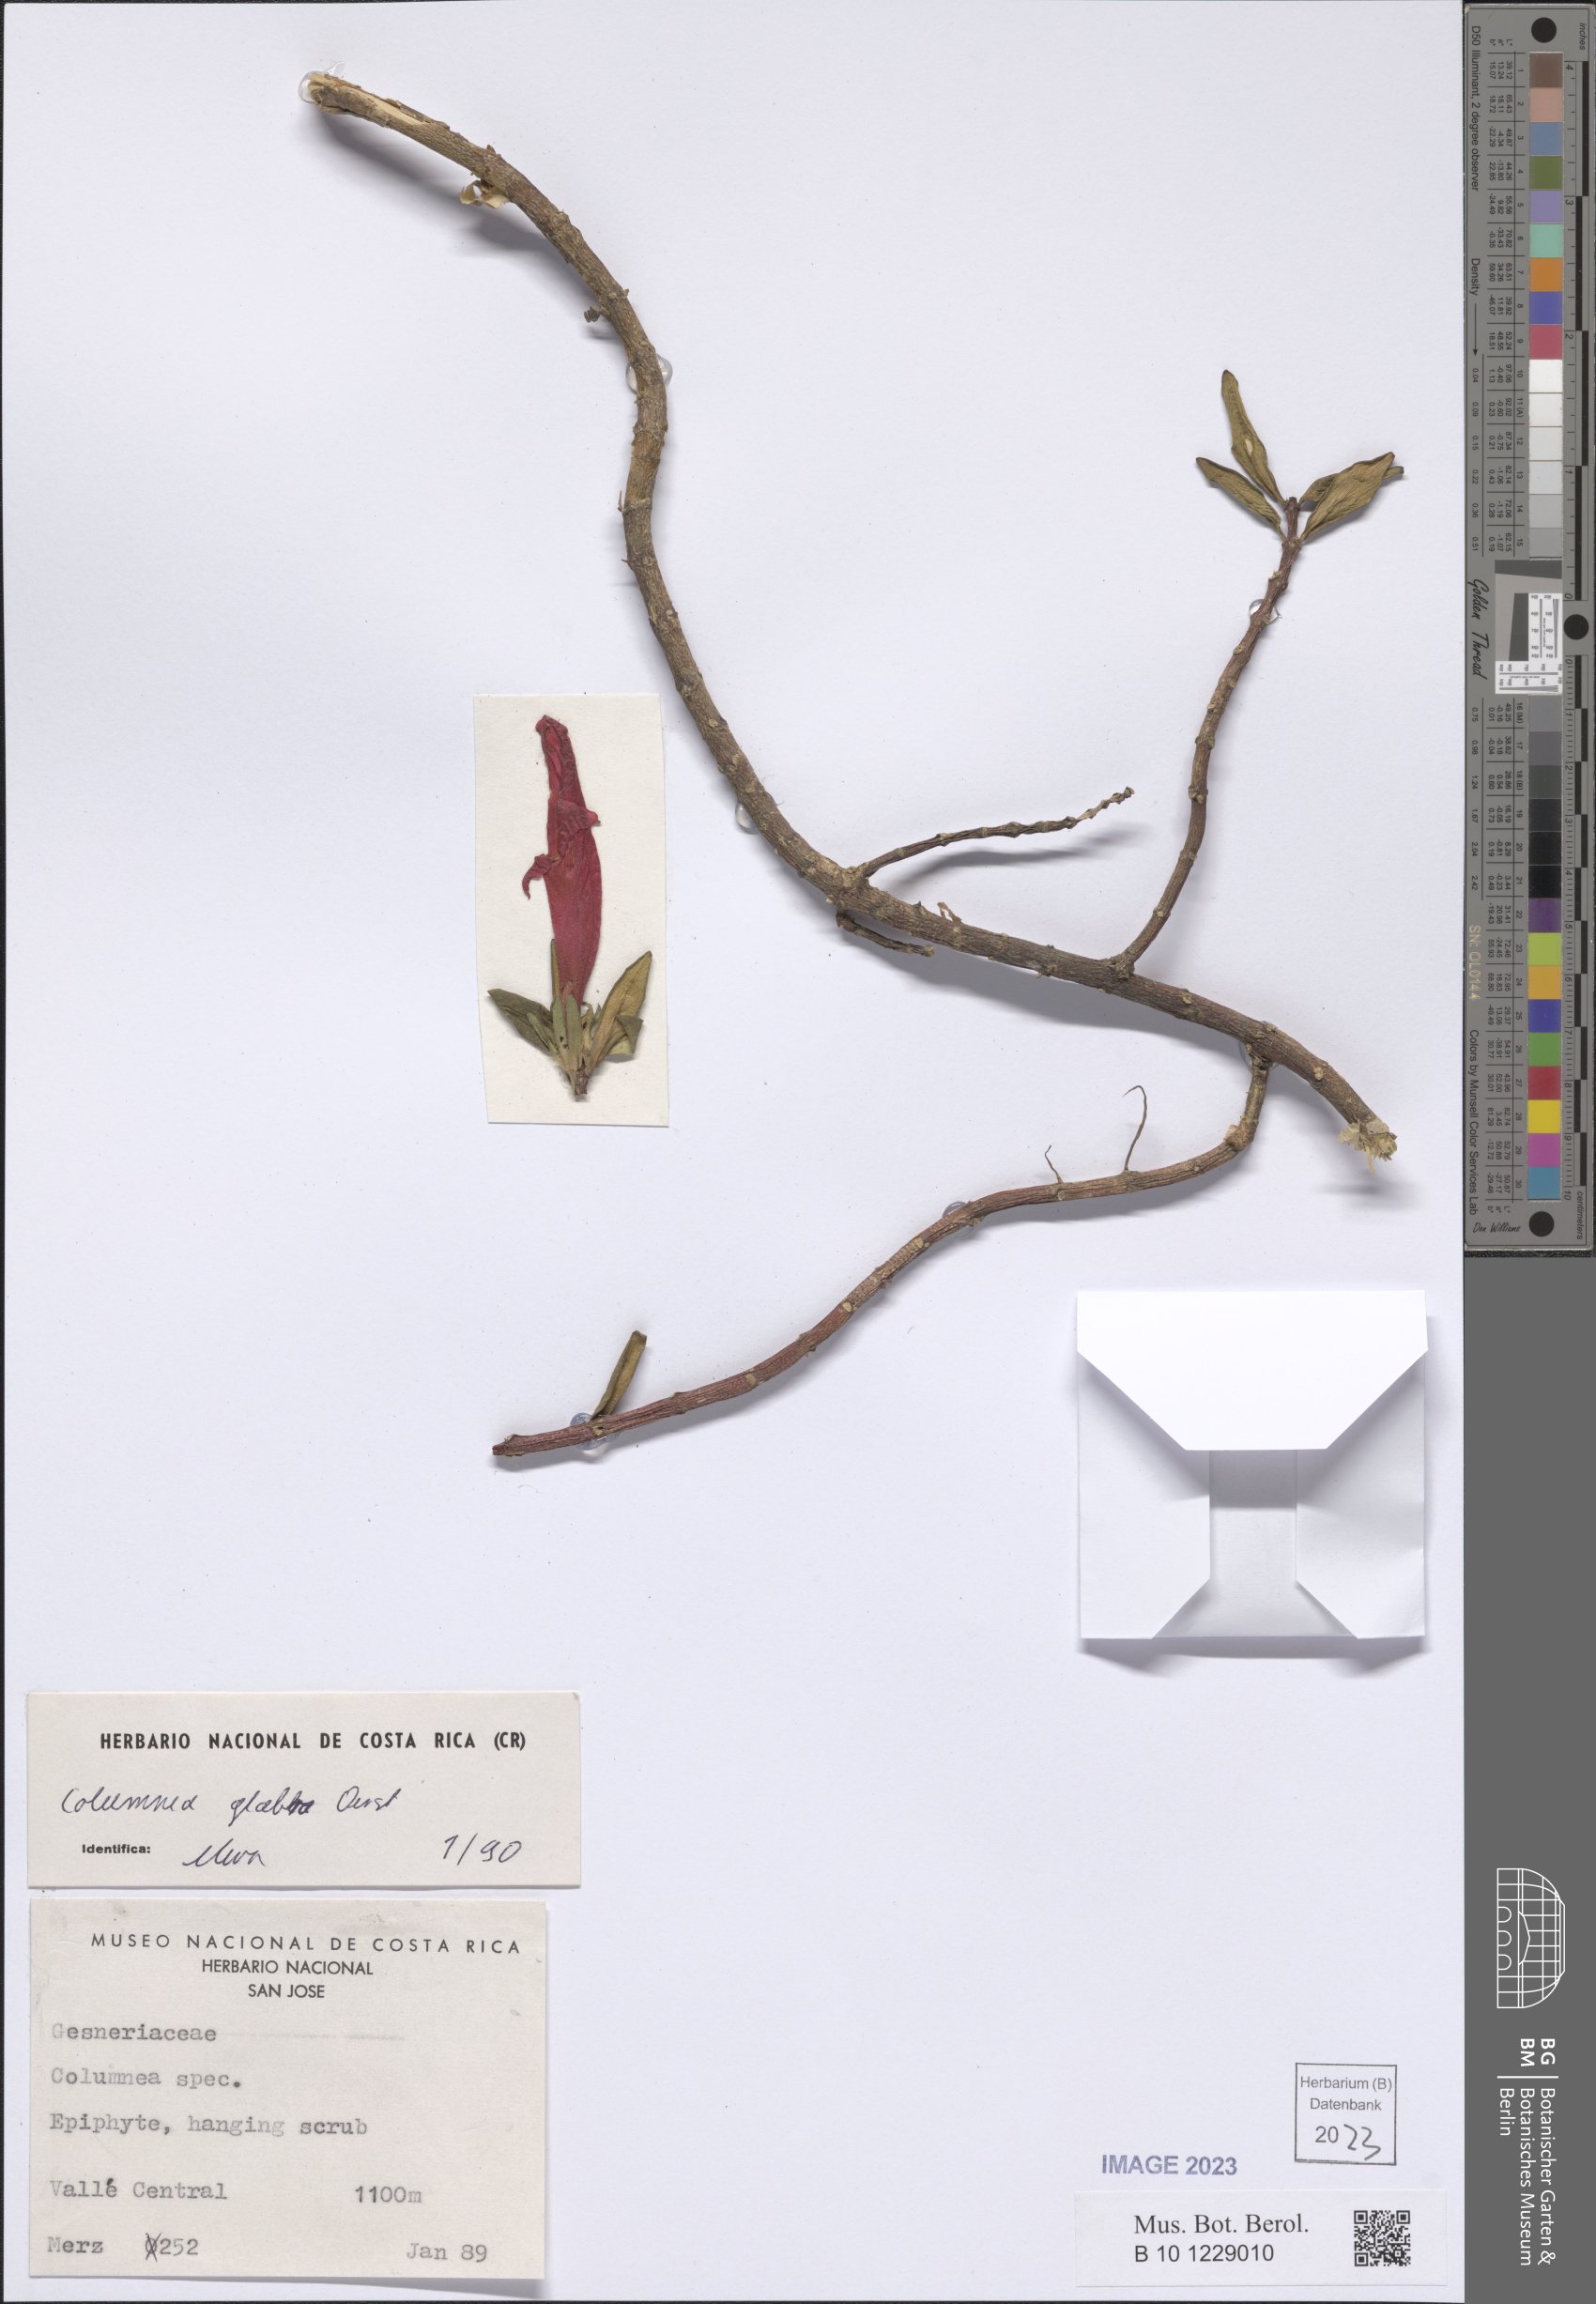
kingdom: Plantae
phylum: Tracheophyta
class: Magnoliopsida
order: Lamiales
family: Gesneriaceae
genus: Columnea
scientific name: Columnea glabra
